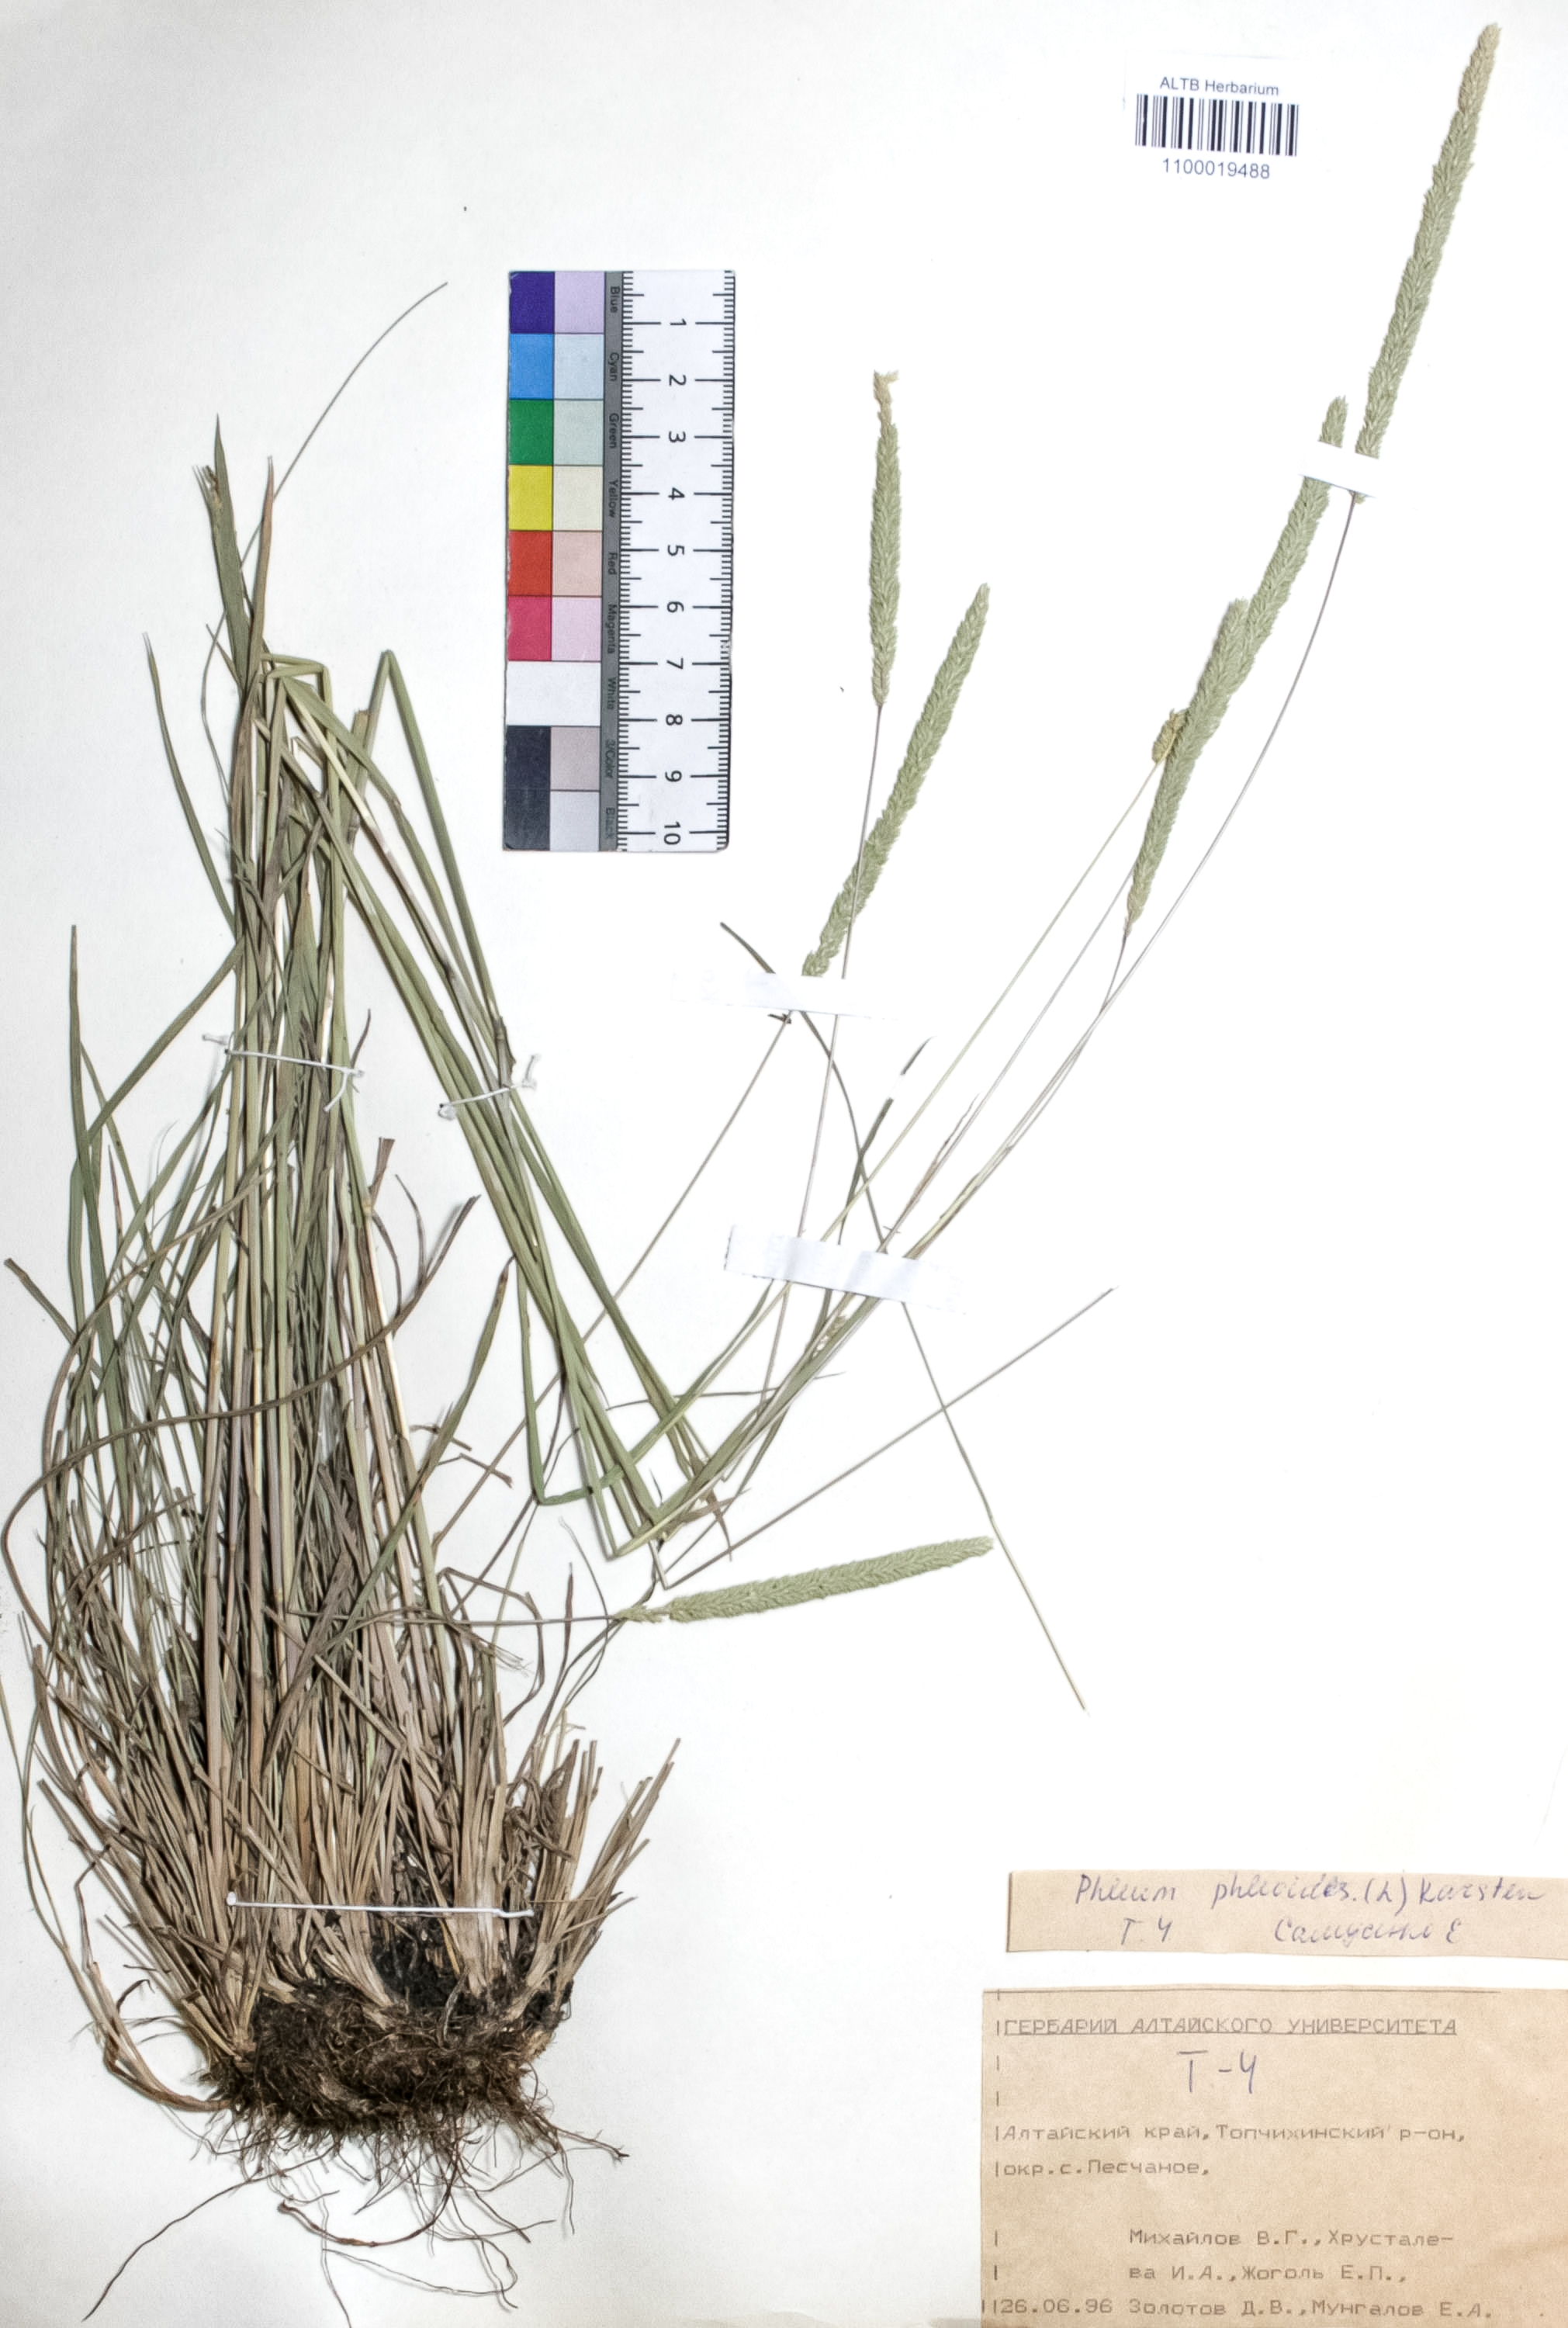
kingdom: Plantae
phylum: Tracheophyta
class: Liliopsida
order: Poales
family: Poaceae
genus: Phleum
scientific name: Phleum phleoides
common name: Purple-stem cat's-tail
